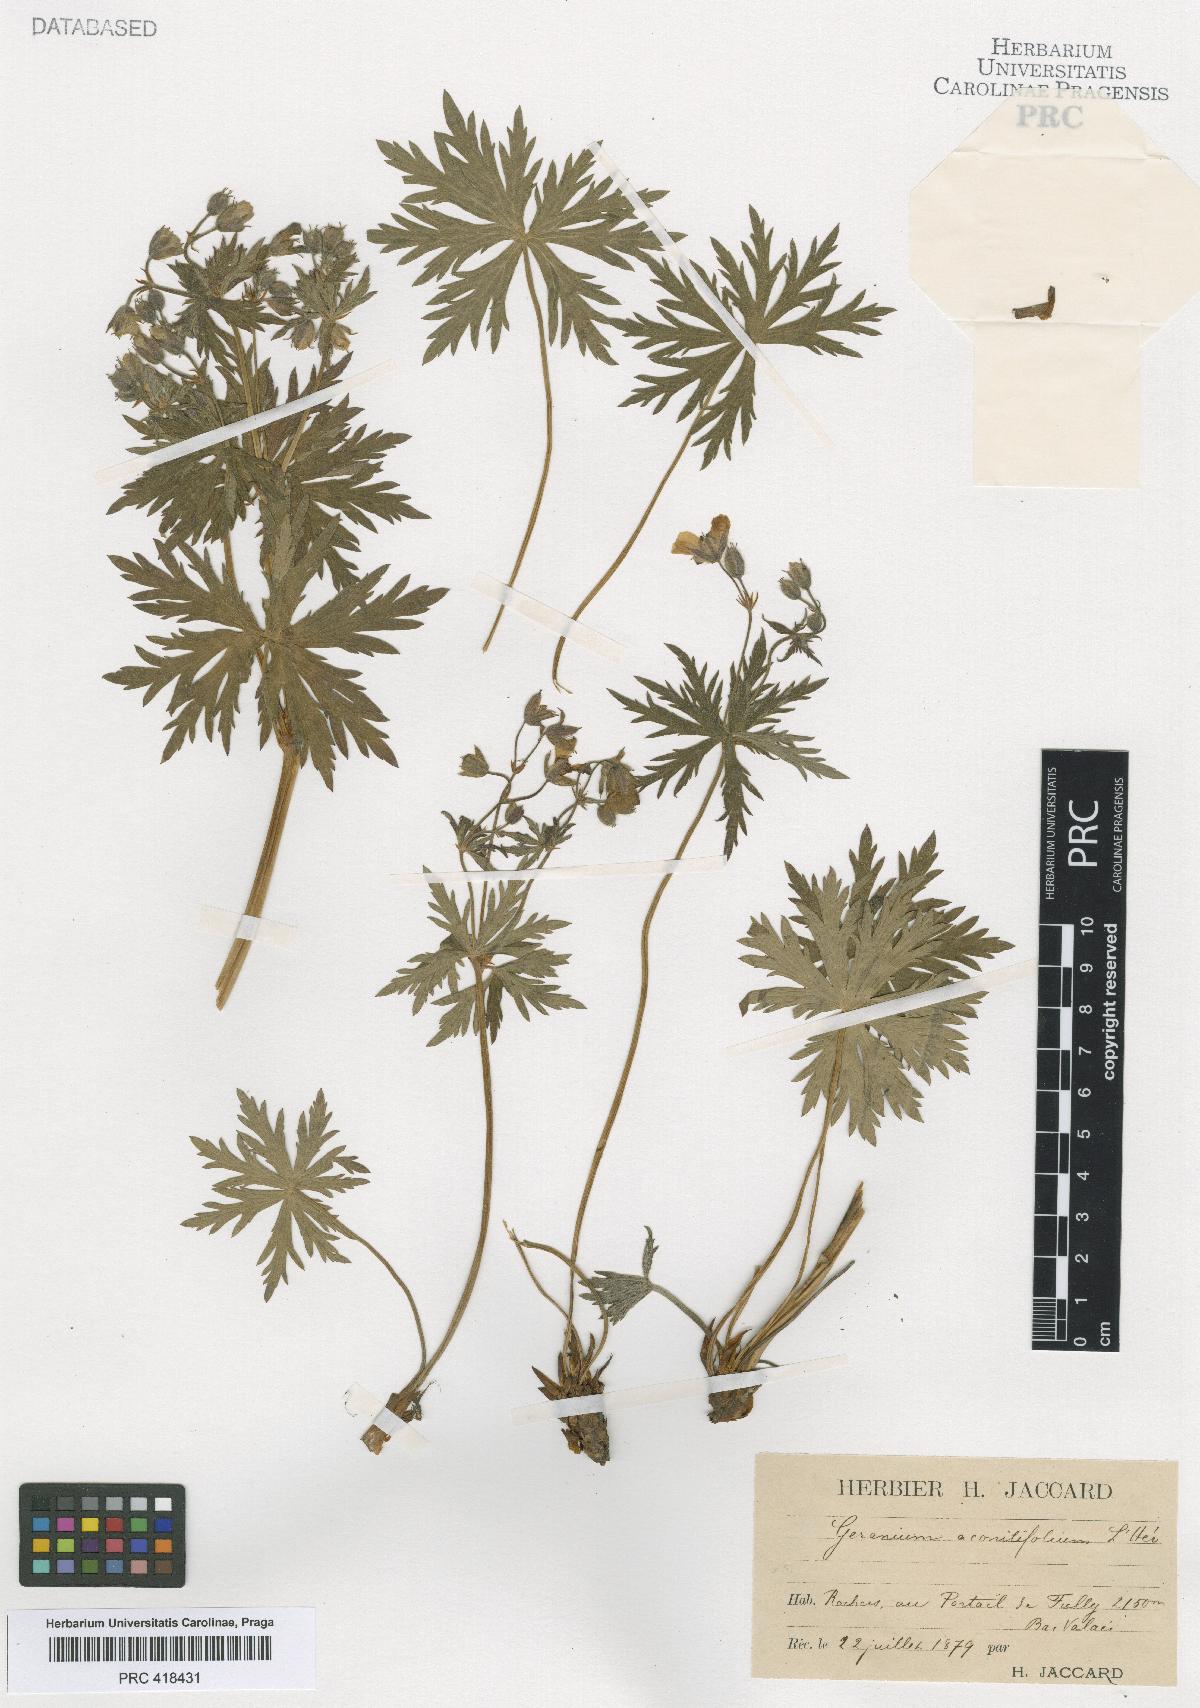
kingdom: Plantae
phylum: Tracheophyta
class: Magnoliopsida
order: Geraniales
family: Geraniaceae
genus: Geranium
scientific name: Geranium rivulare
